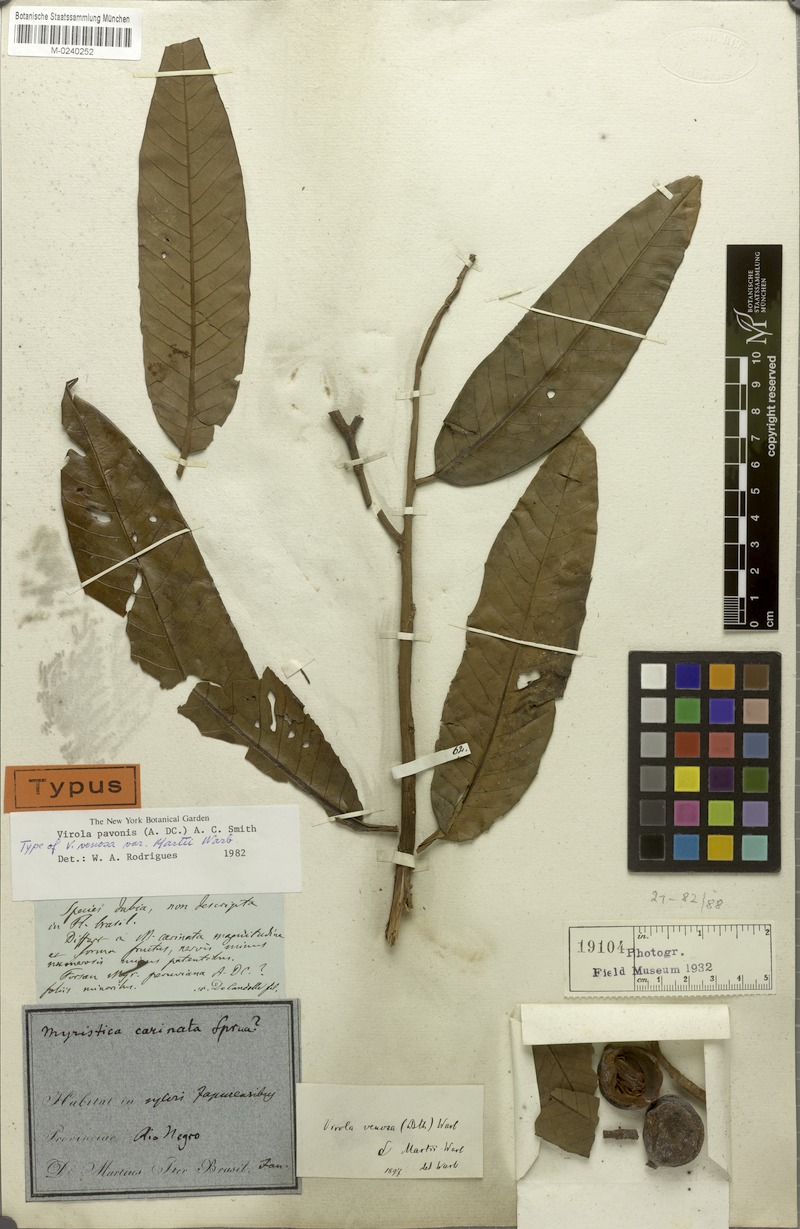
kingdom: Plantae
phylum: Tracheophyta
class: Magnoliopsida
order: Magnoliales
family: Myristicaceae
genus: Virola
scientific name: Virola pavonis
